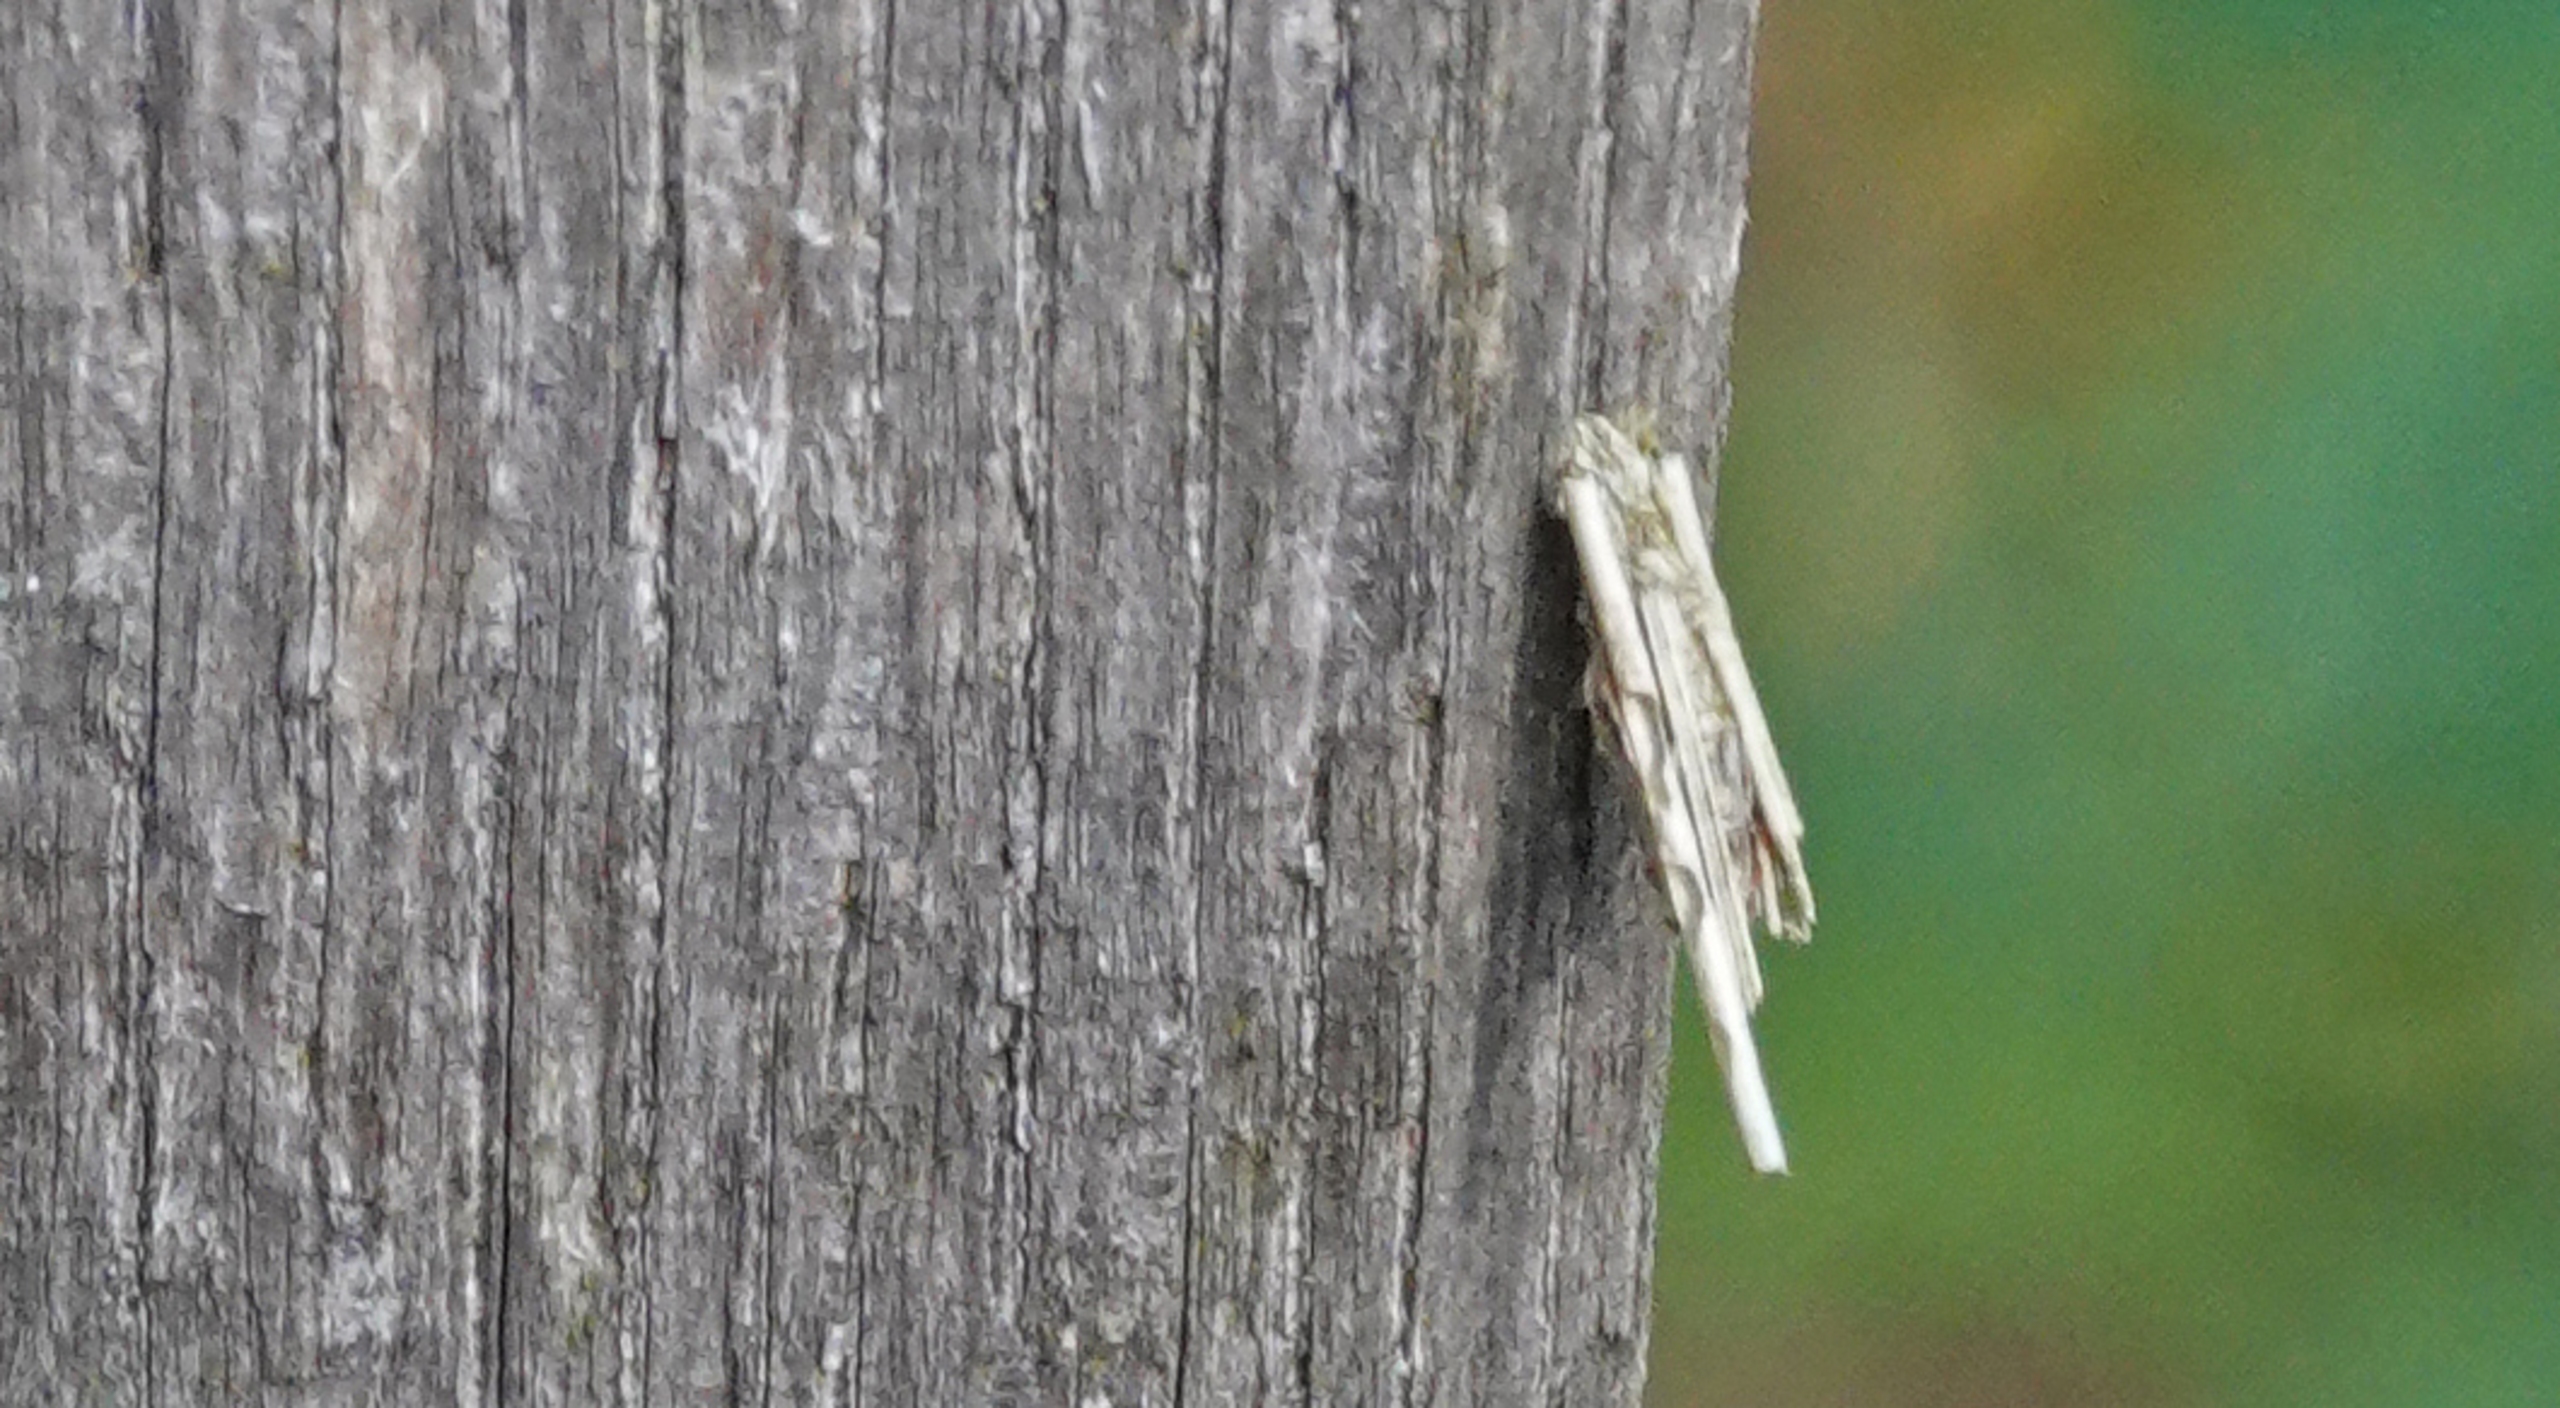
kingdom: Animalia
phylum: Arthropoda
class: Insecta
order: Lepidoptera
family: Psychidae
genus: Psyche
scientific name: Psyche casta
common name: Lille stråsækbærer
